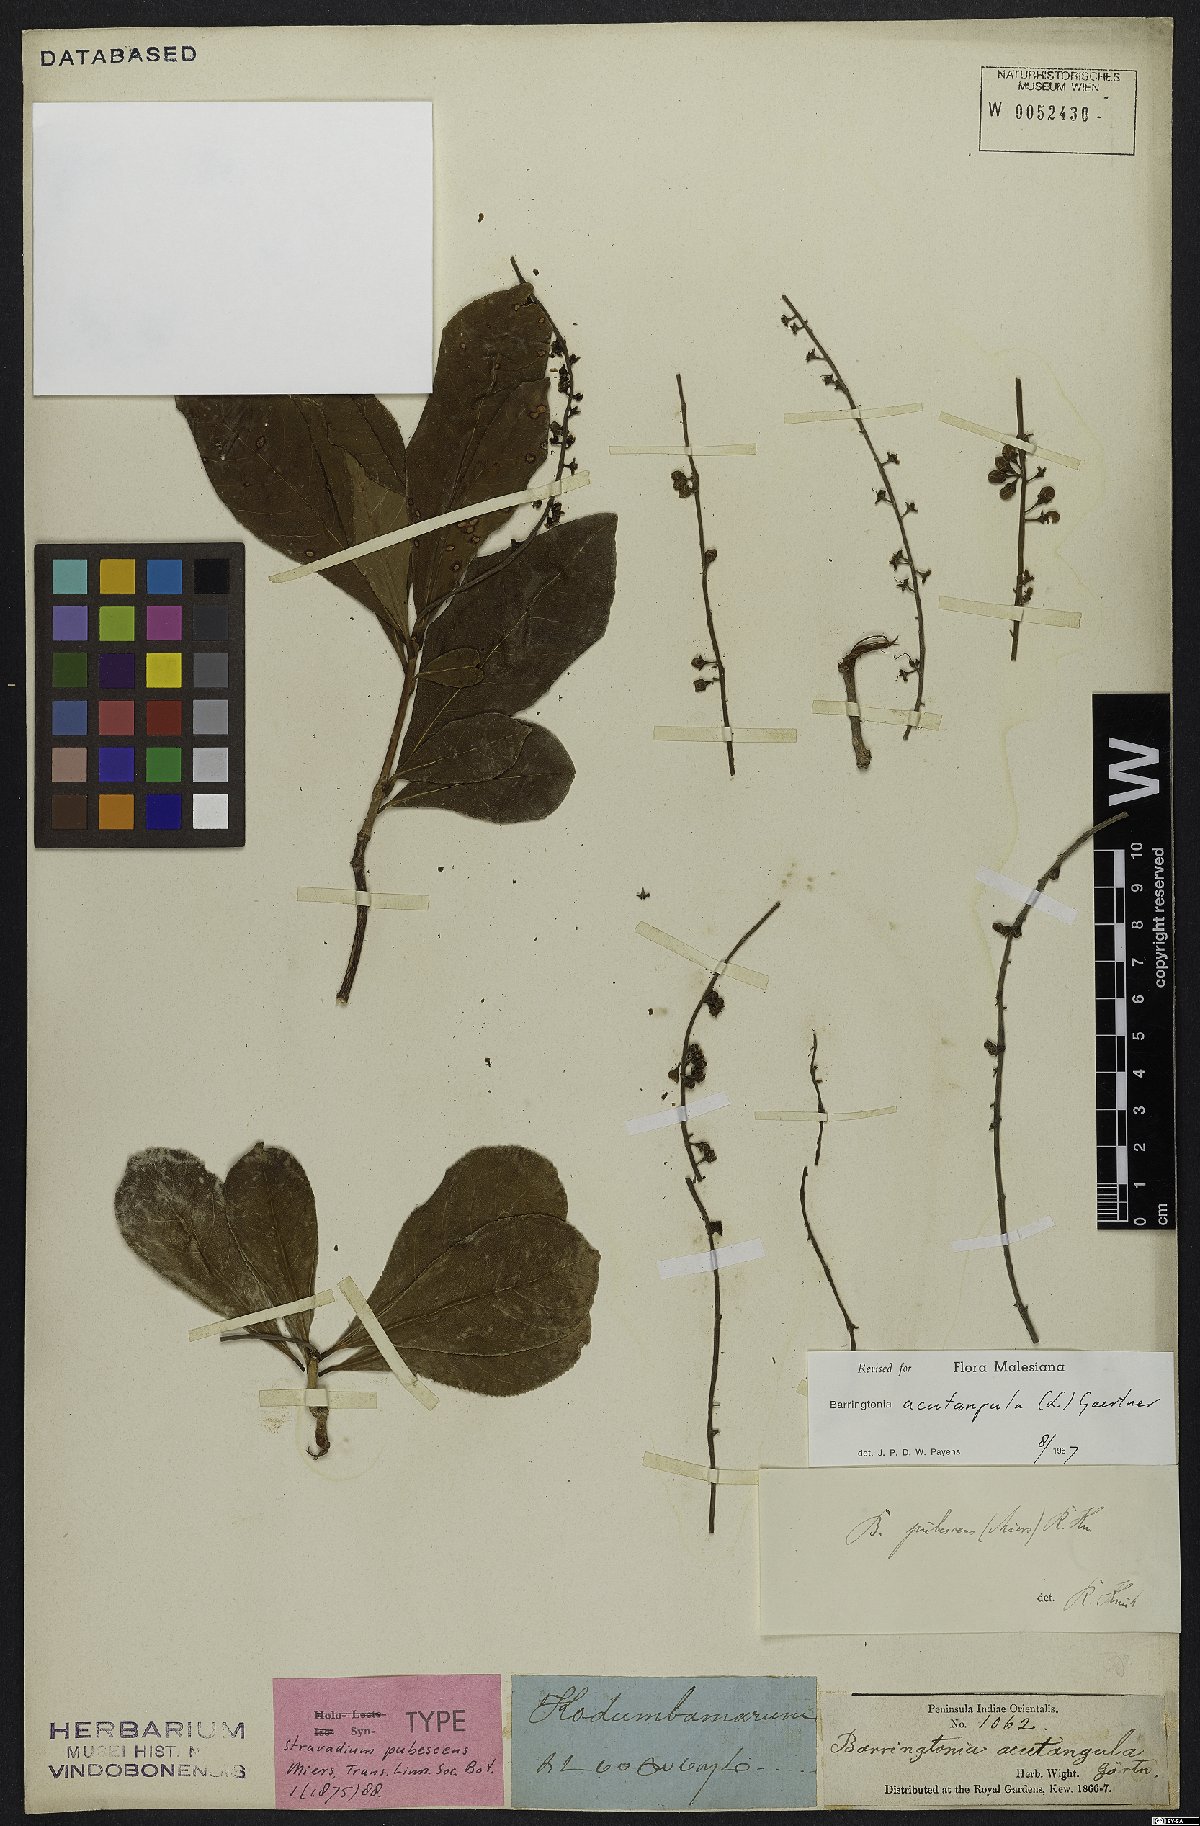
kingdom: Plantae
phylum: Tracheophyta
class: Magnoliopsida
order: Ericales
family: Lecythidaceae
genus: Barringtonia
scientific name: Barringtonia acutangula
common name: Freshwater mangrove
